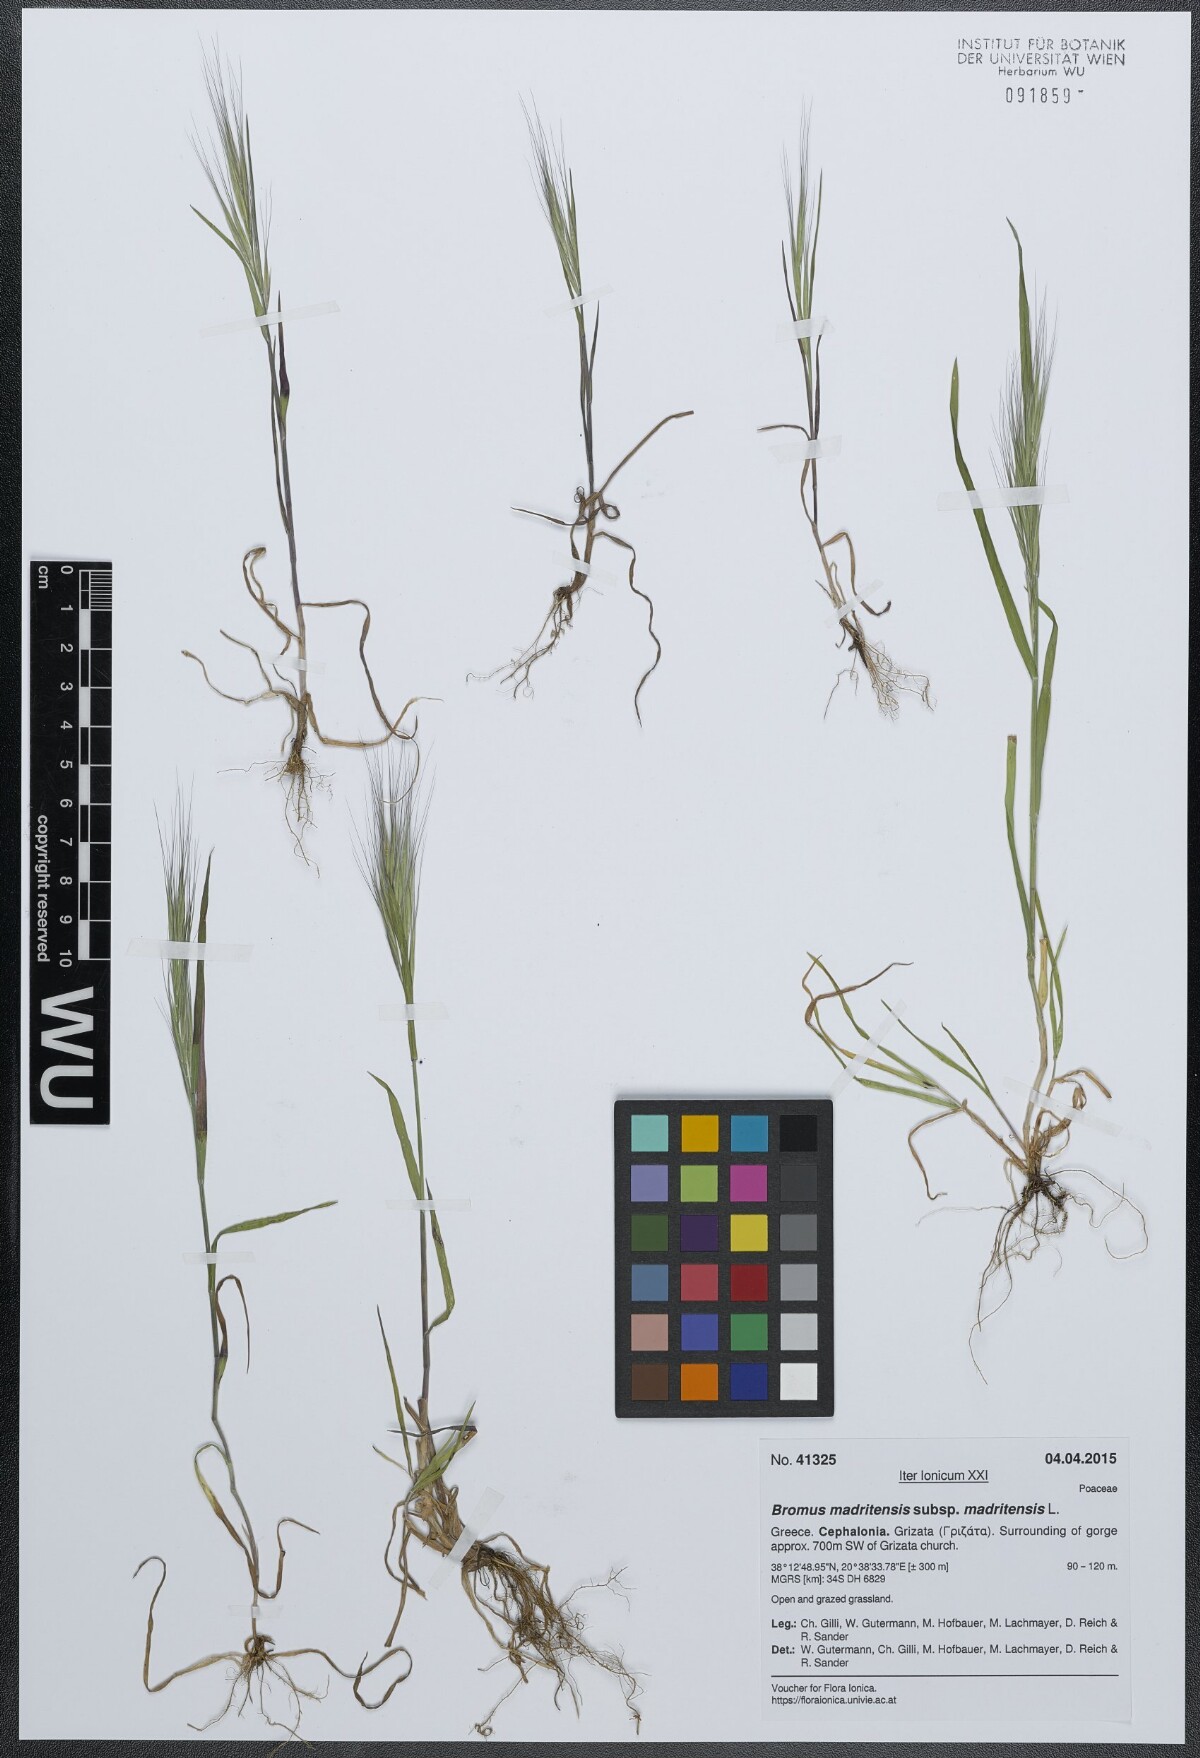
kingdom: Plantae
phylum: Tracheophyta
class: Liliopsida
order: Poales
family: Poaceae
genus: Bromus
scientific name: Bromus madritensis
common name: Compact brome
